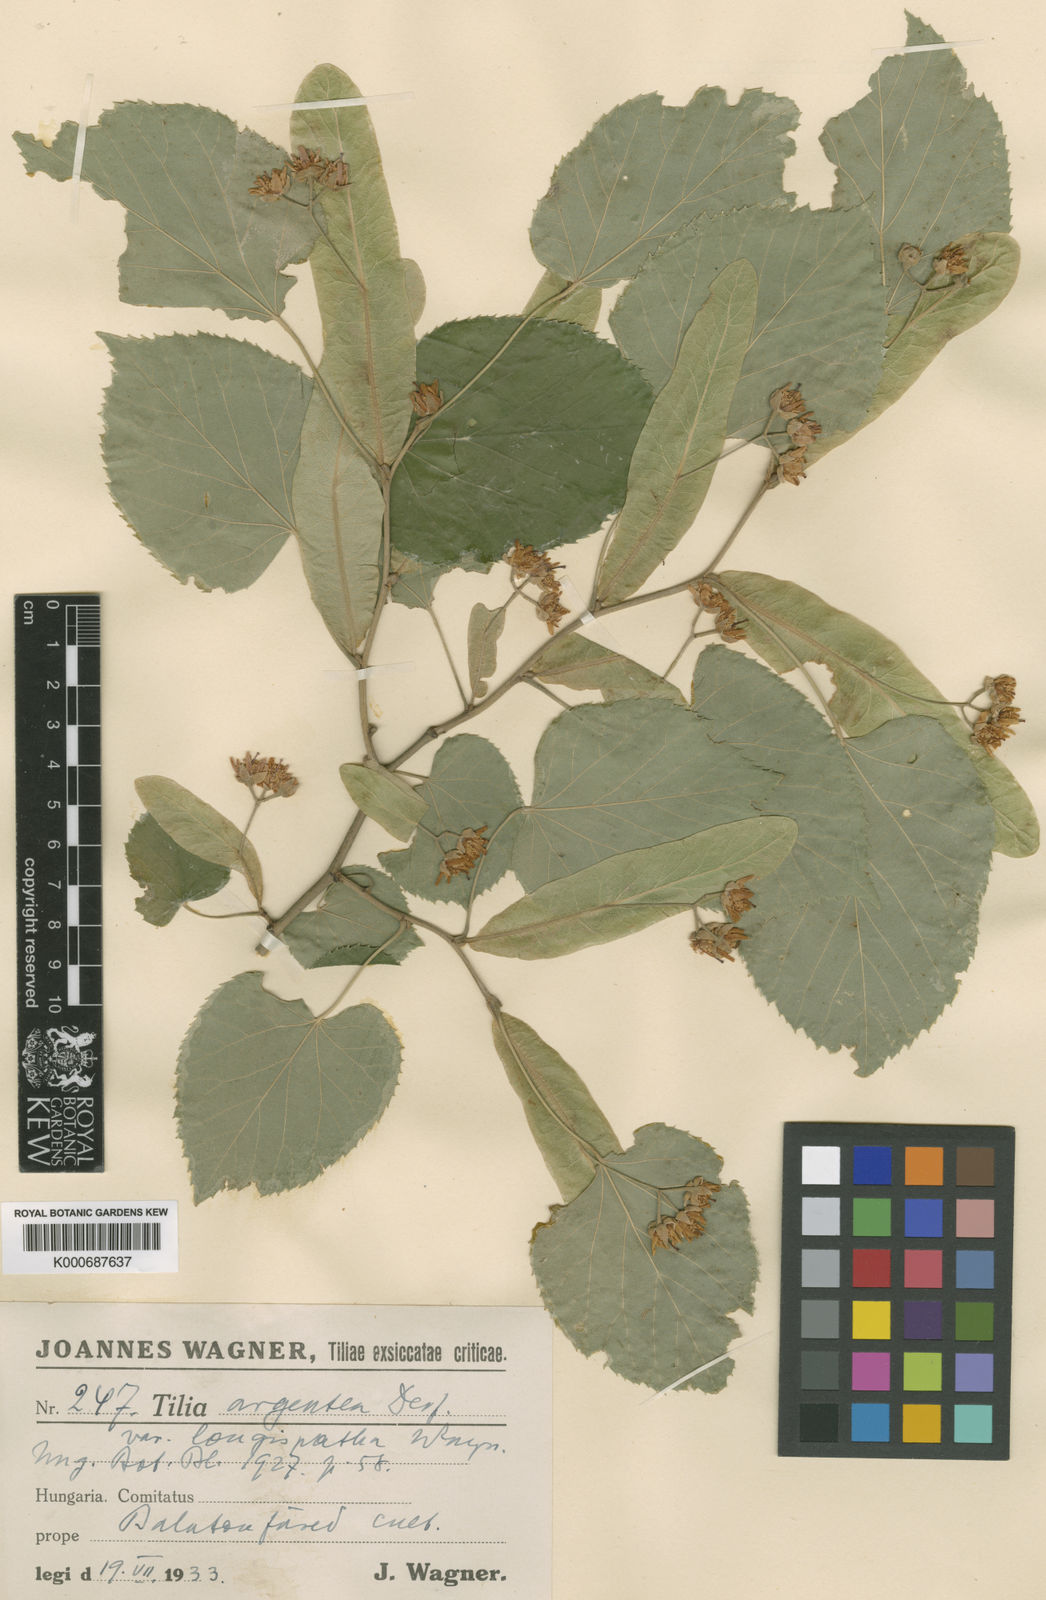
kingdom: Plantae
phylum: Tracheophyta
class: Magnoliopsida
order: Malvales
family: Malvaceae
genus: Tilia
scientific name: Tilia tomentosa
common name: Silver lime
